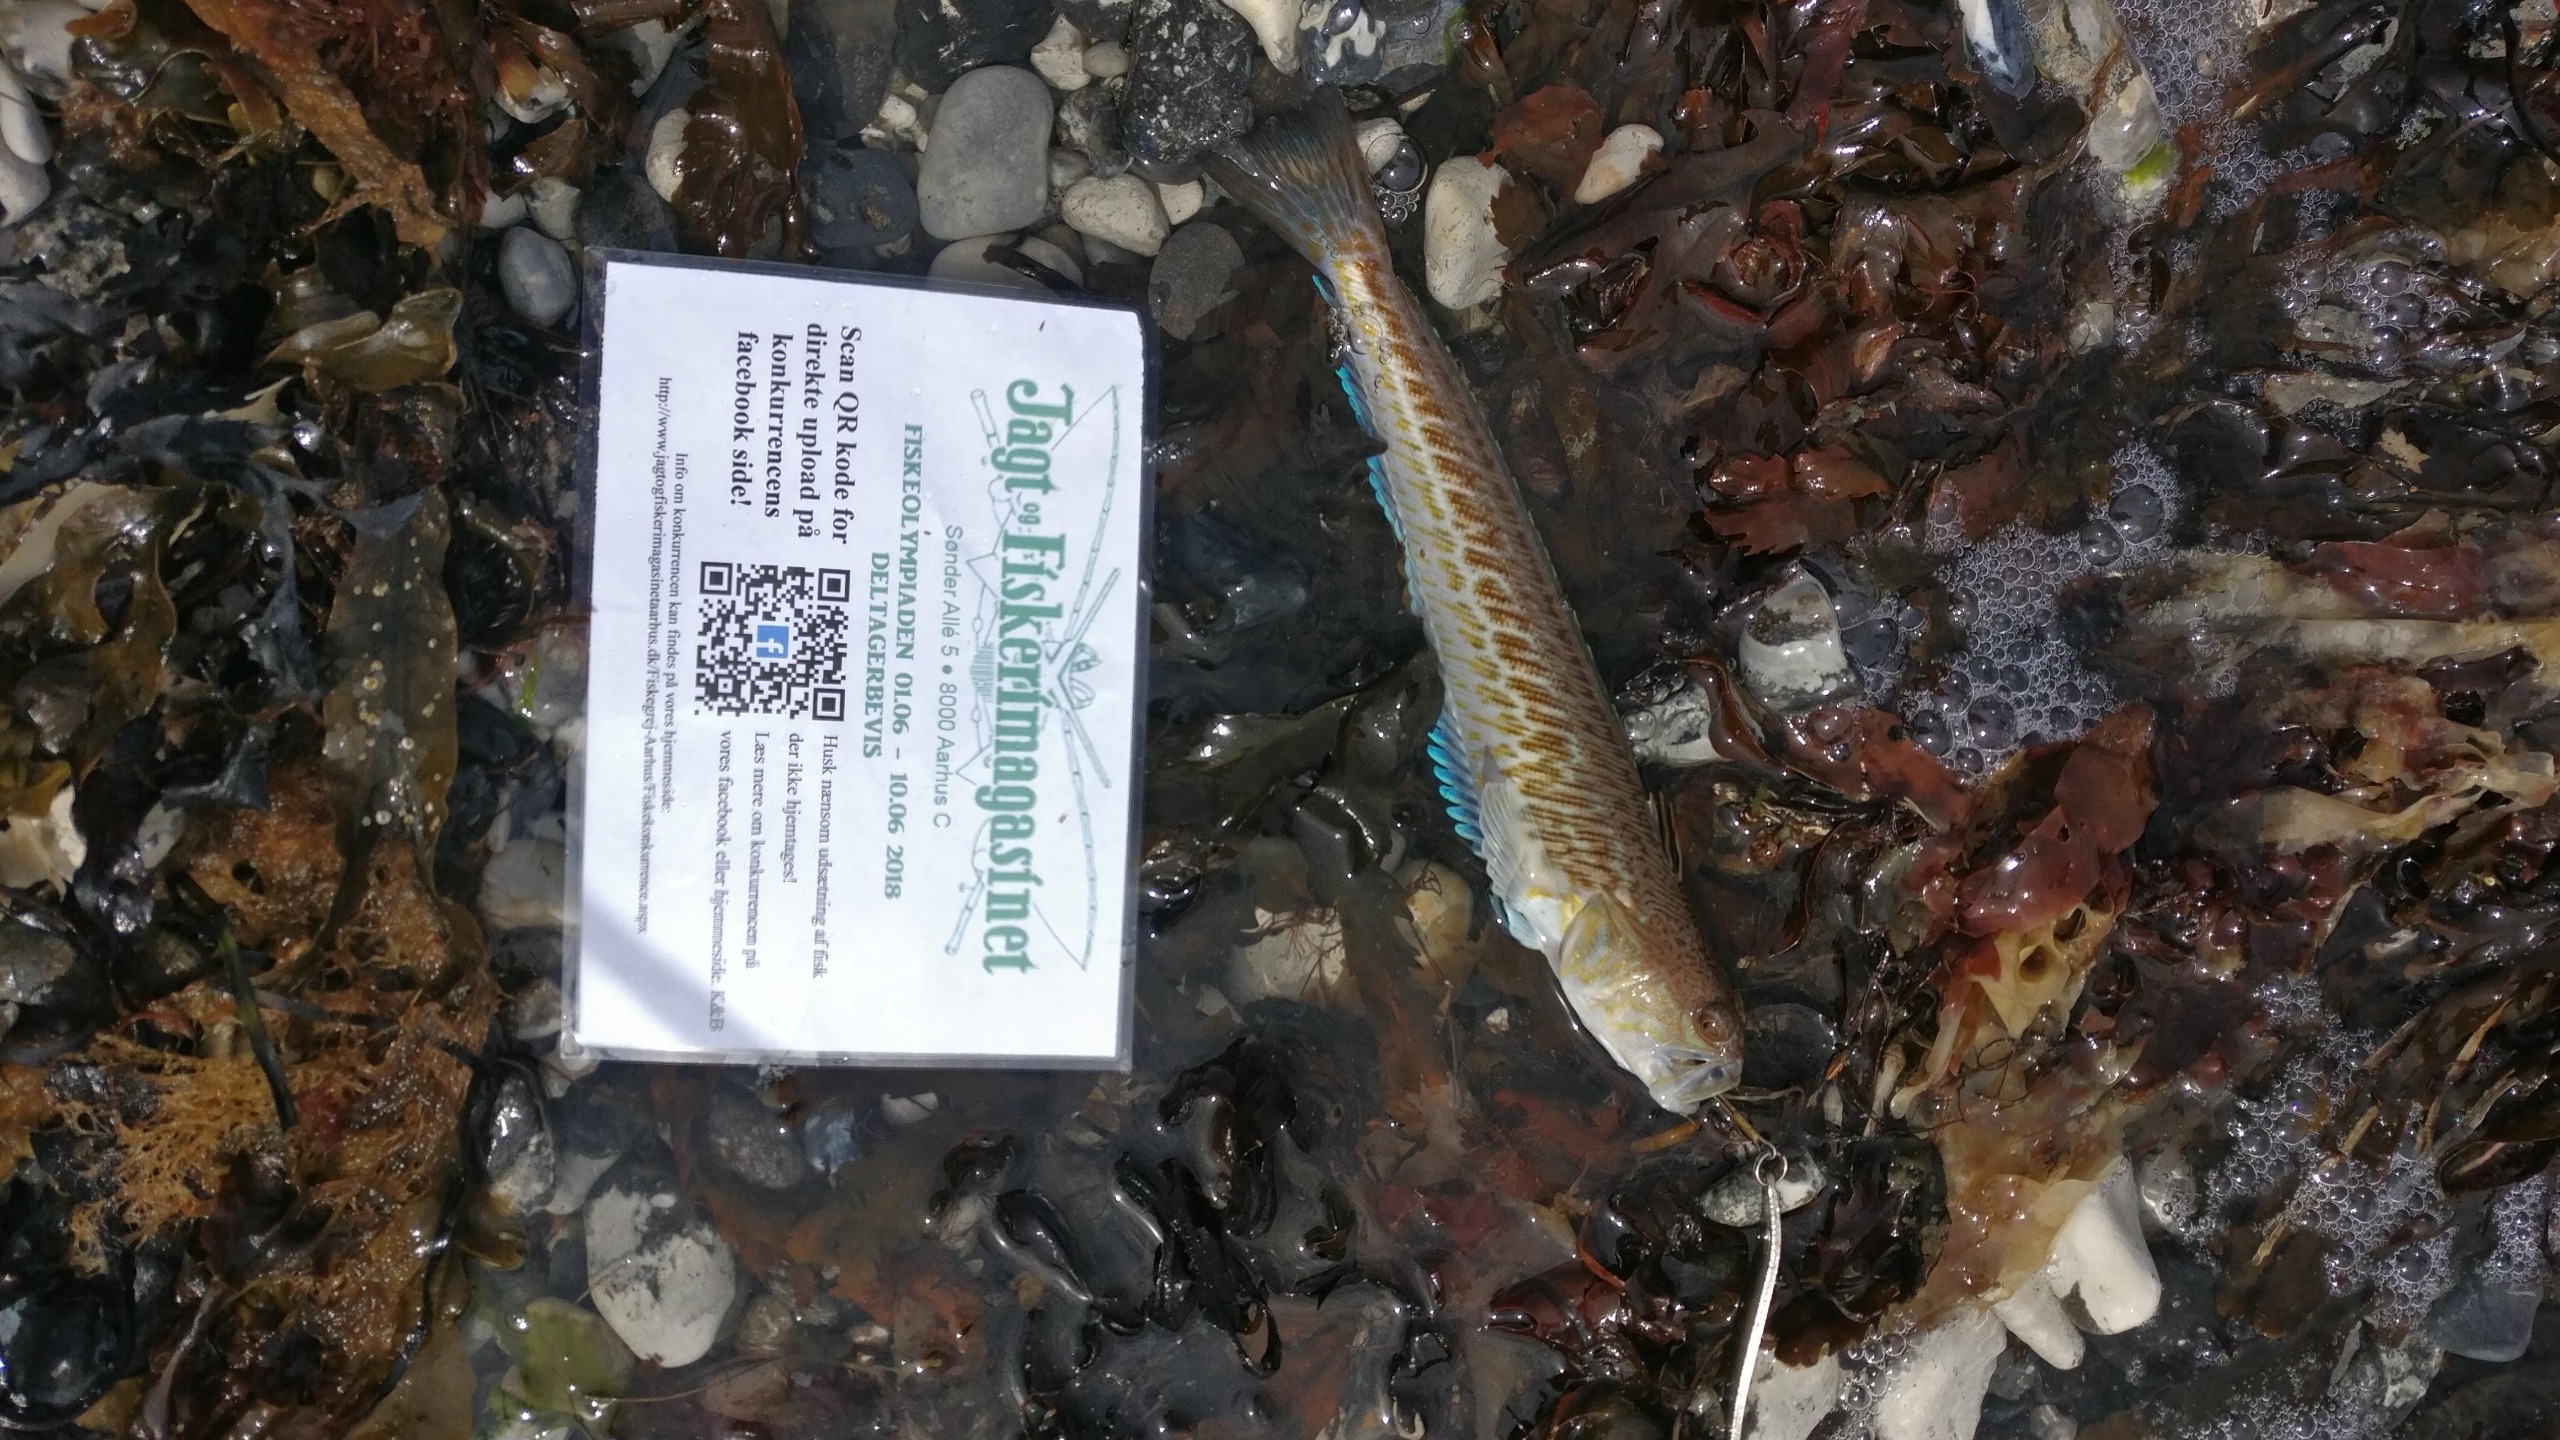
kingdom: Animalia
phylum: Chordata
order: Perciformes
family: Trachinidae
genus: Trachinus
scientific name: Trachinus draco
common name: Almindelig fjæsing
